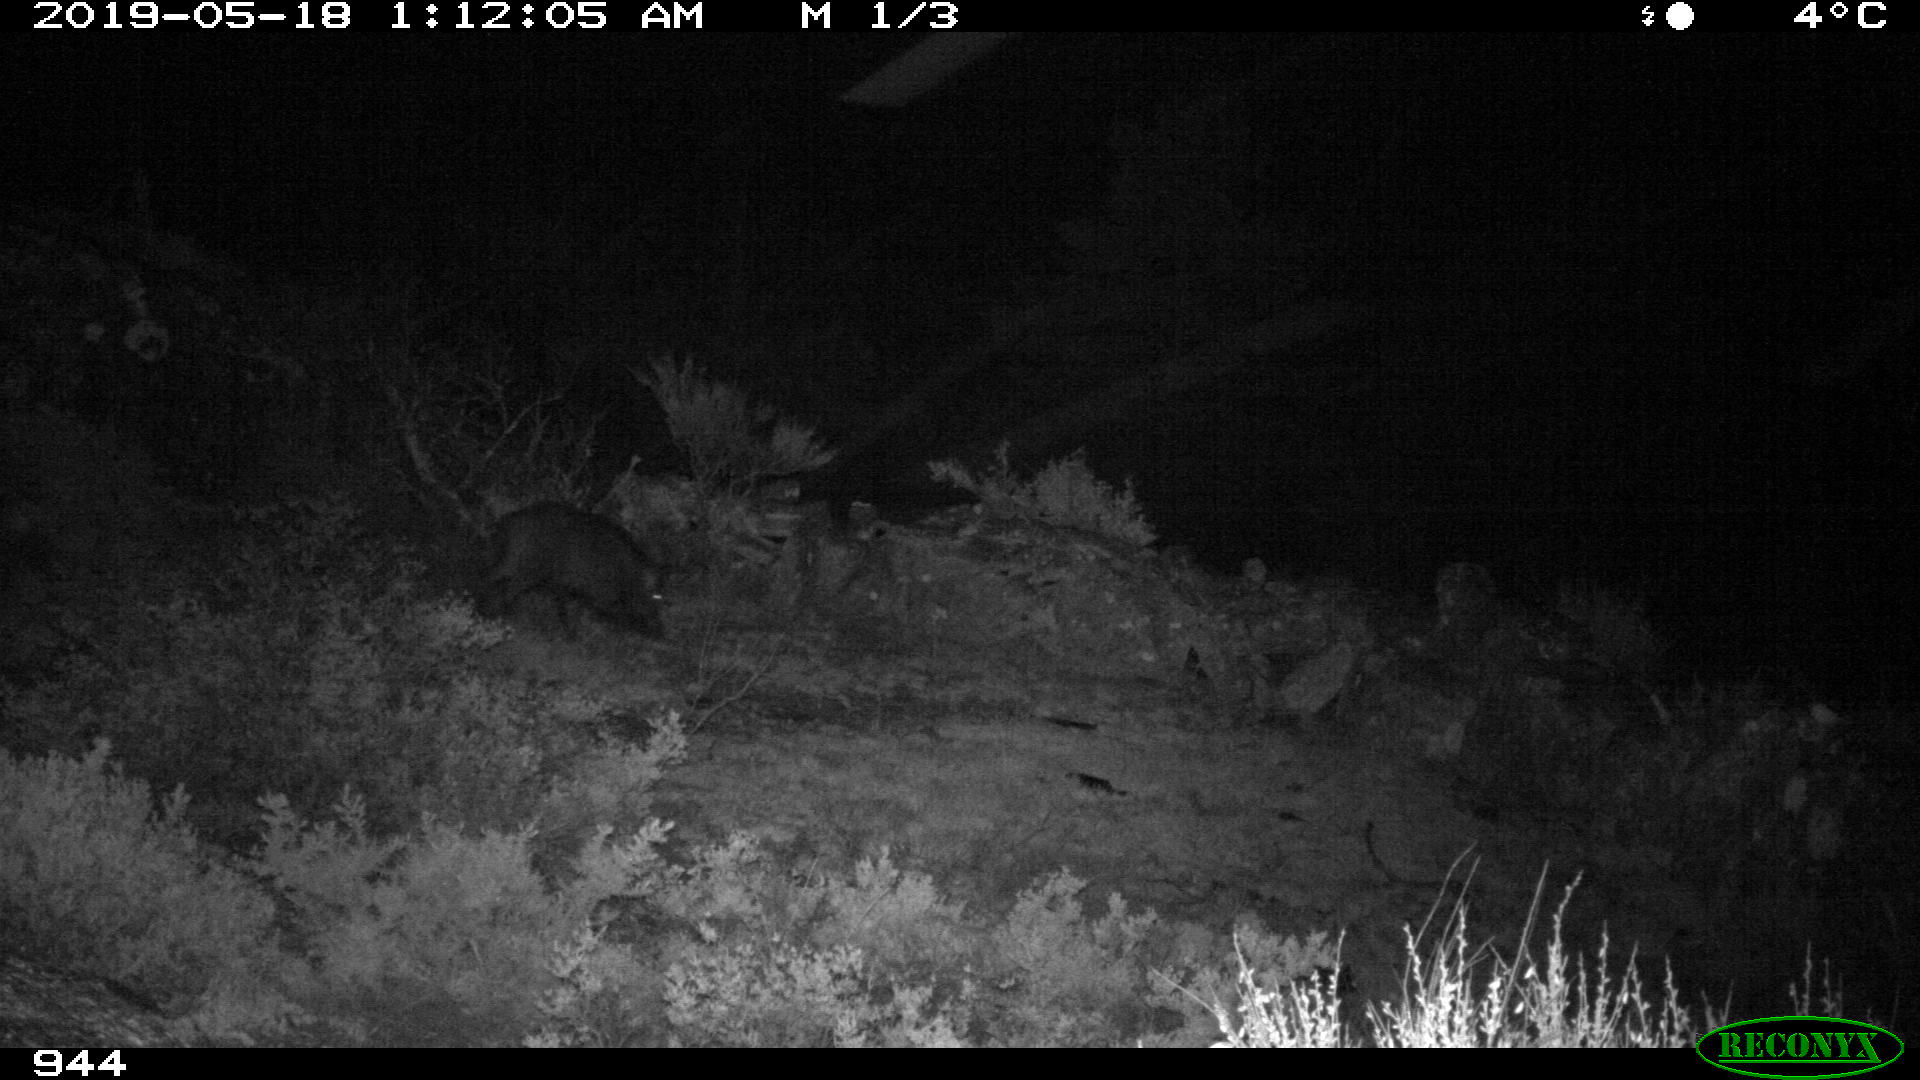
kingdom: Animalia
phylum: Chordata
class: Mammalia
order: Artiodactyla
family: Suidae
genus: Sus
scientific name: Sus scrofa
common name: Wild boar
